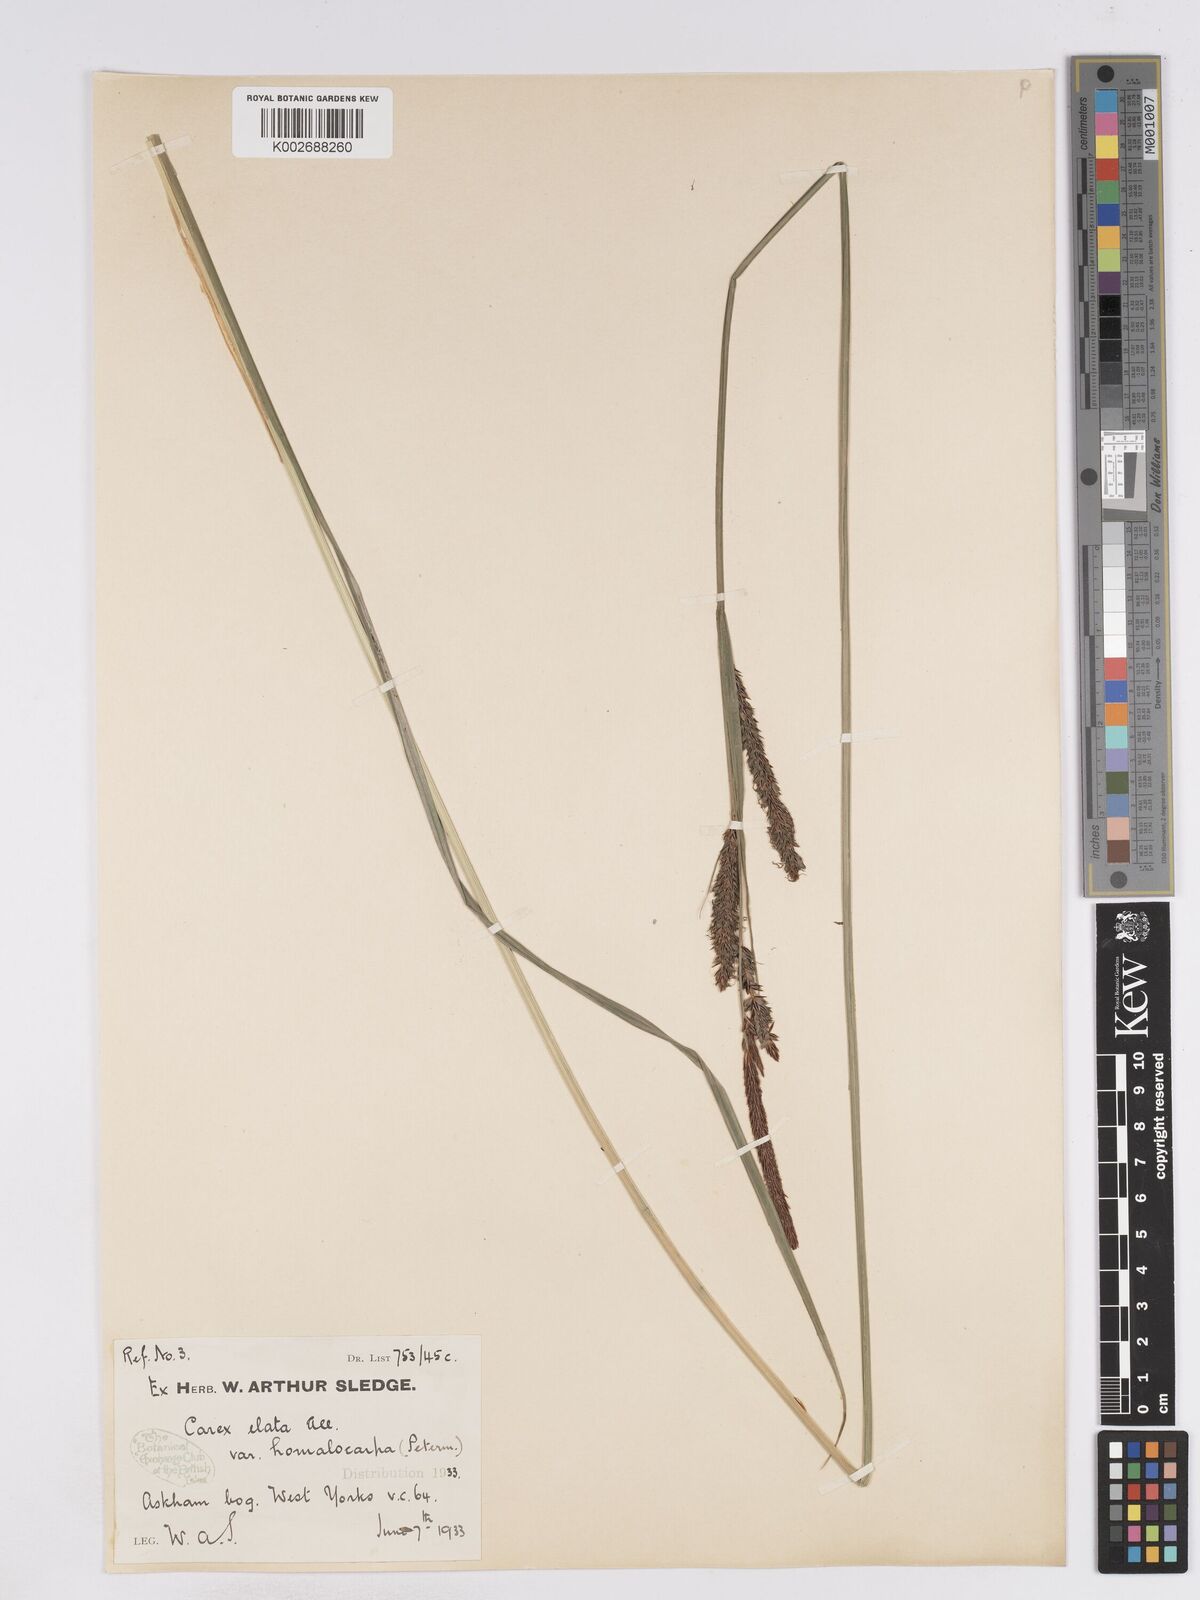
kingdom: Plantae
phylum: Tracheophyta
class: Liliopsida
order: Poales
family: Cyperaceae
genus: Carex
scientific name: Carex elata
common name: Tufted sedge
